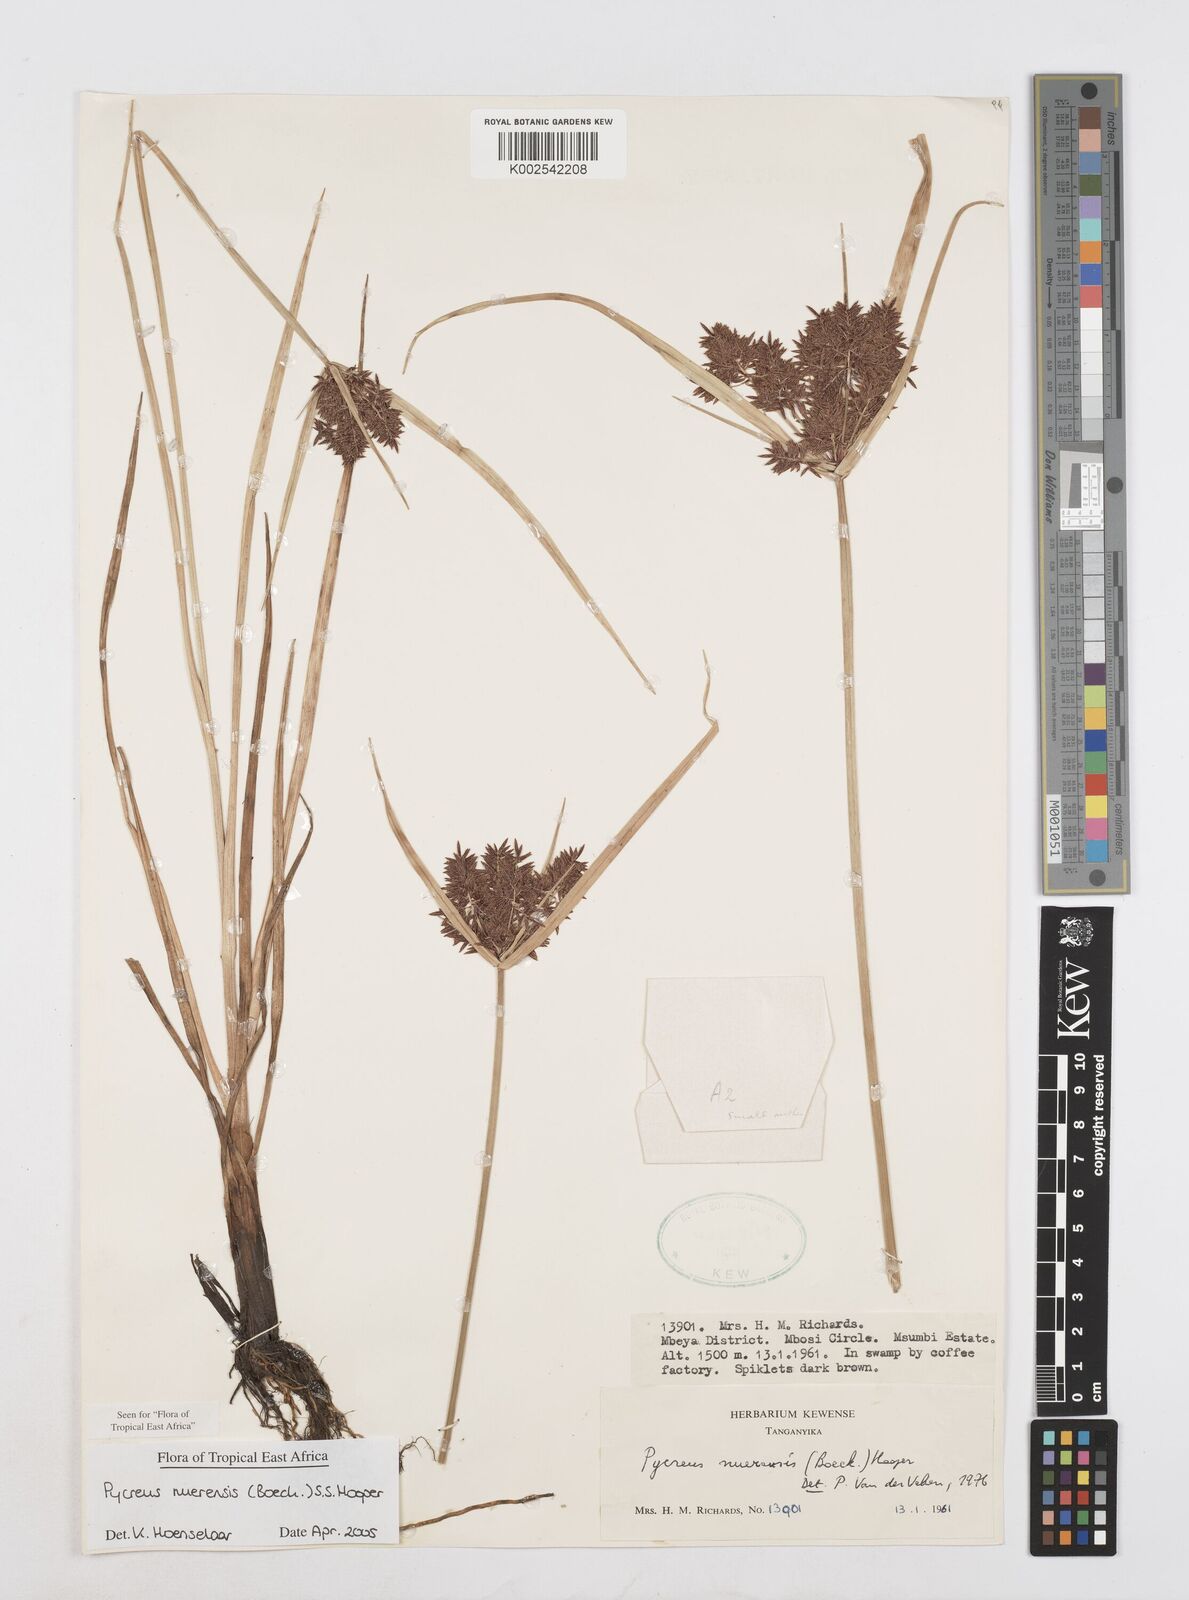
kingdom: Plantae
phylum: Tracheophyta
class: Liliopsida
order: Poales
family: Cyperaceae
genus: Cyperus
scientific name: Cyperus nuerensis
